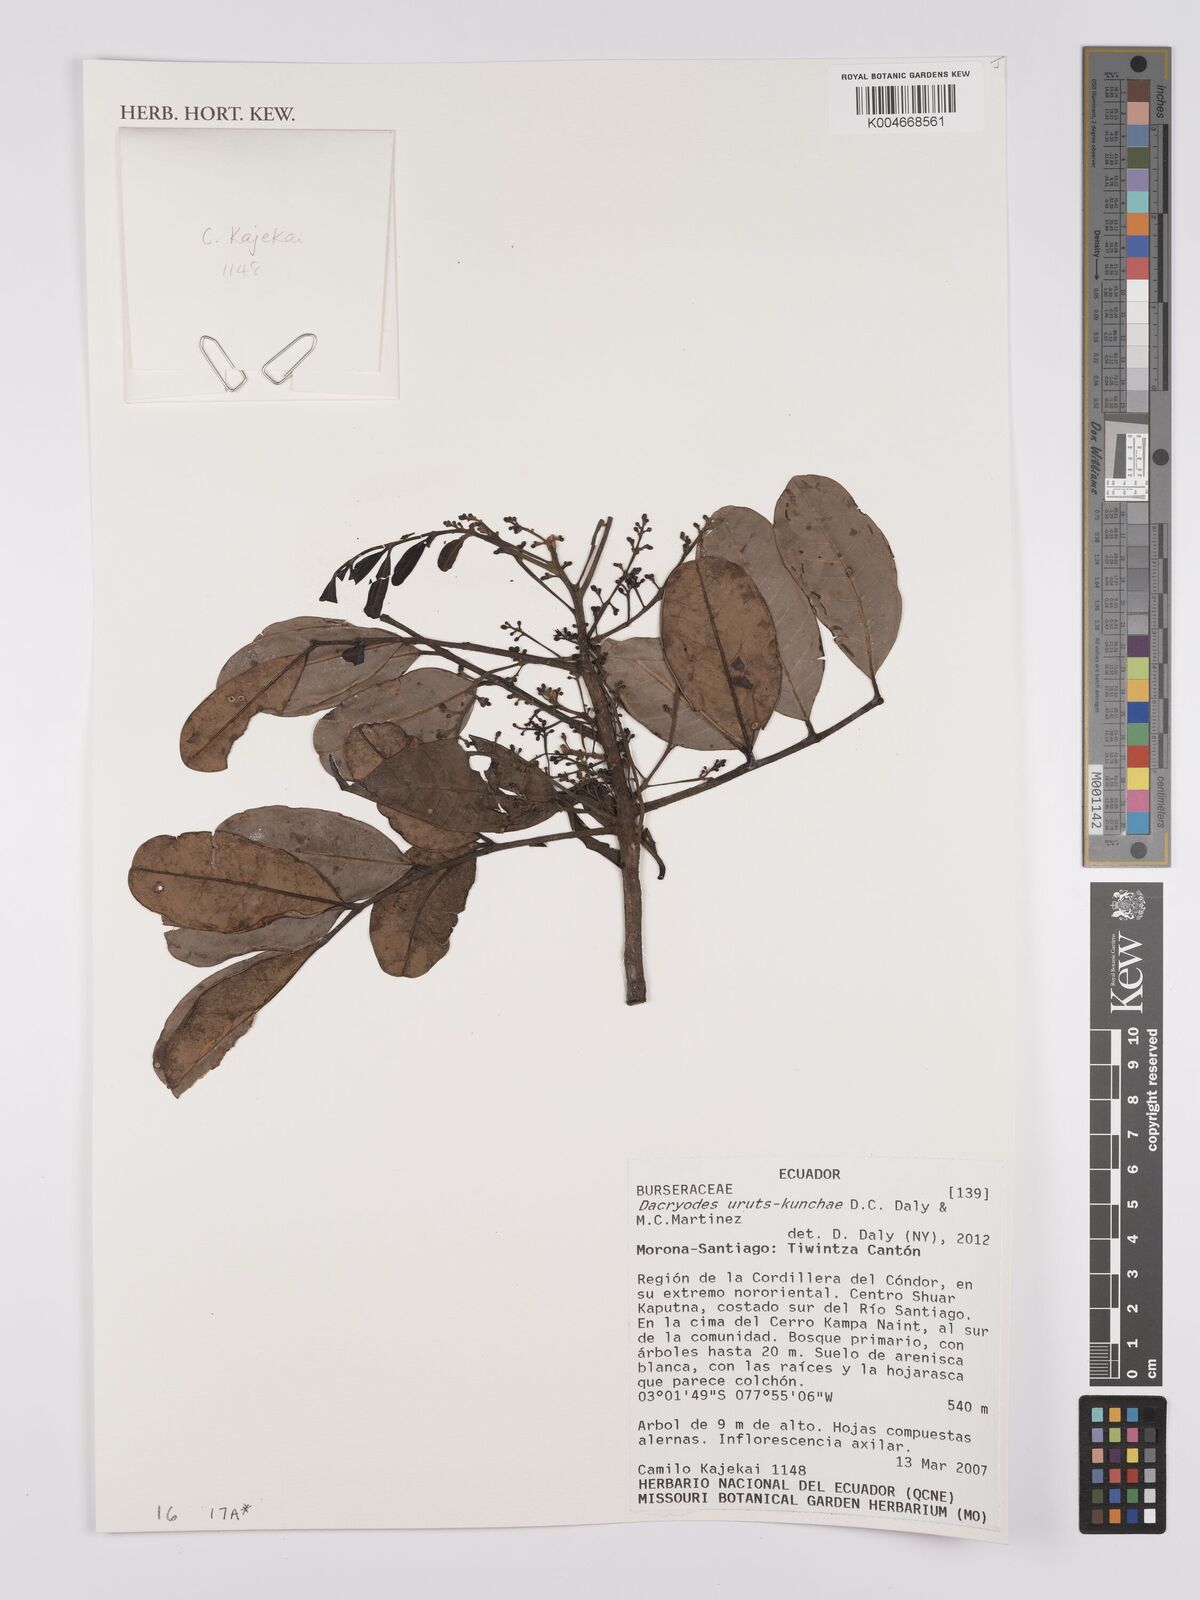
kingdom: Plantae
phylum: Tracheophyta
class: Magnoliopsida
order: Sapindales
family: Burseraceae
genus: Dacryodes
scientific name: Dacryodes uruts-kunchae
